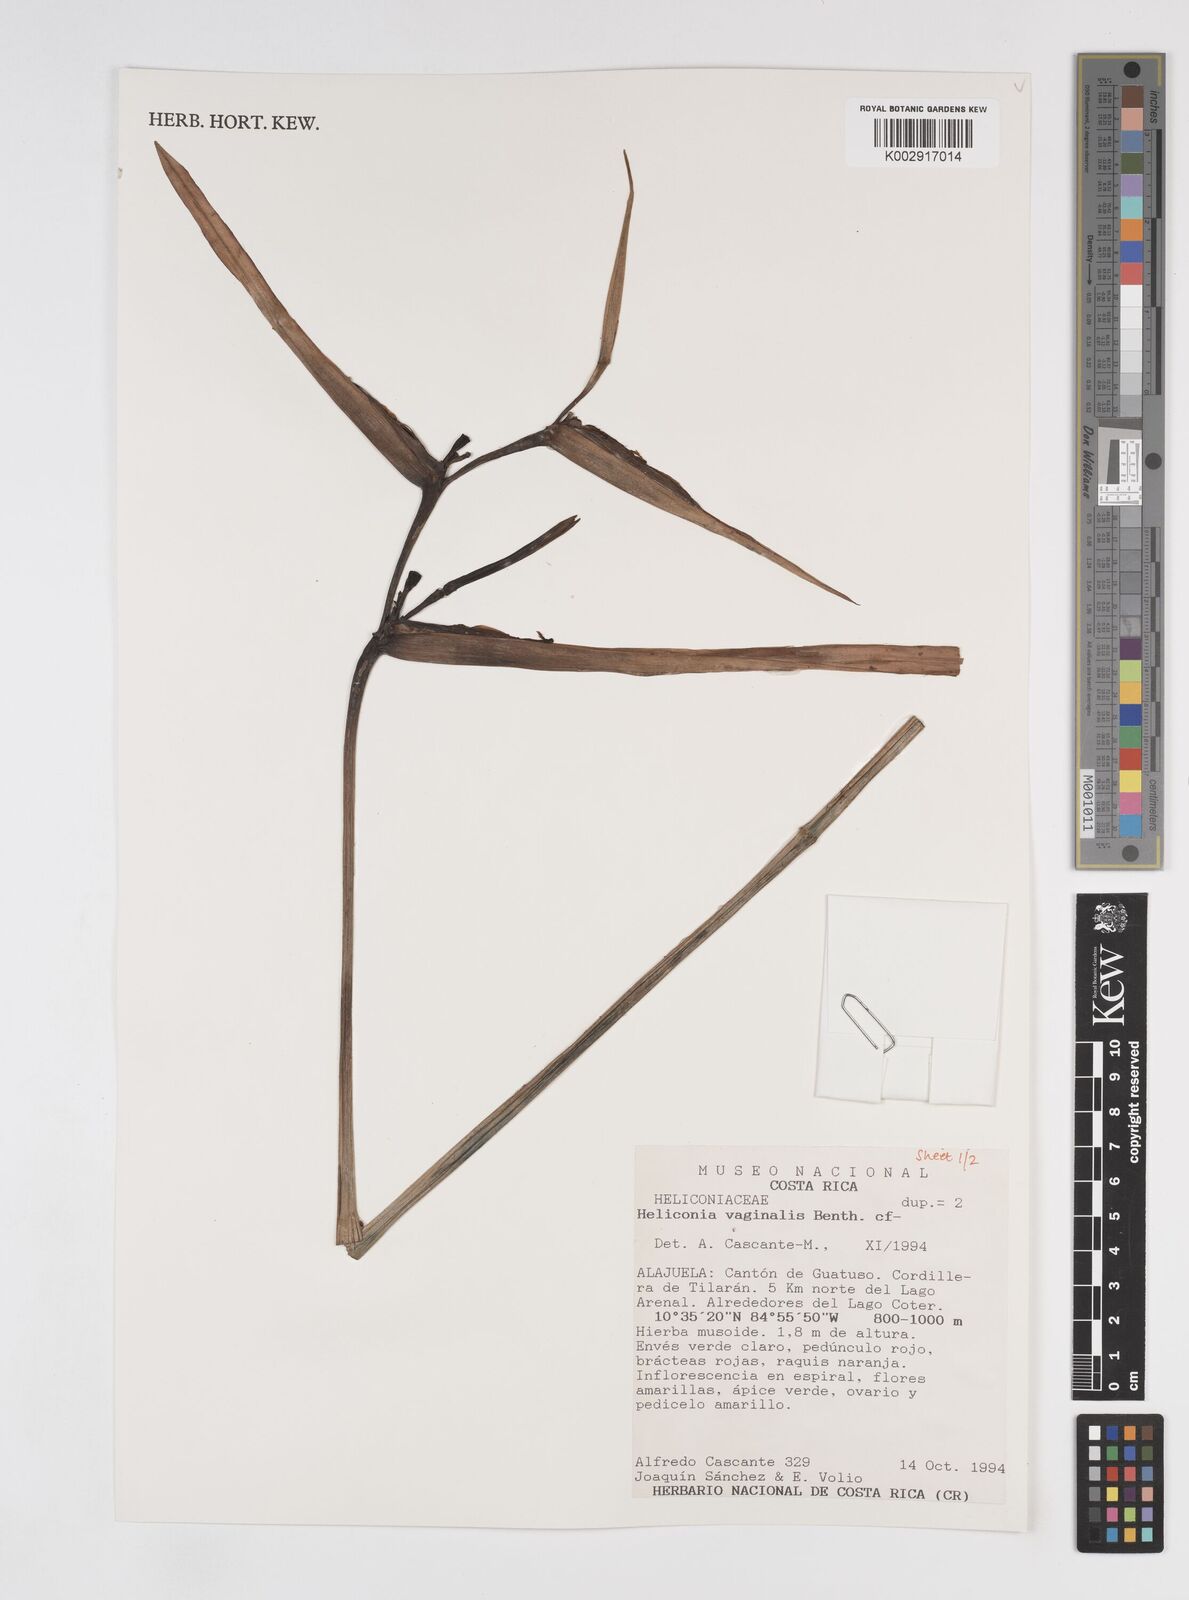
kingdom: Plantae
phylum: Tracheophyta
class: Liliopsida
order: Zingiberales
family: Heliconiaceae
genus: Heliconia
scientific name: Heliconia vaginalis
